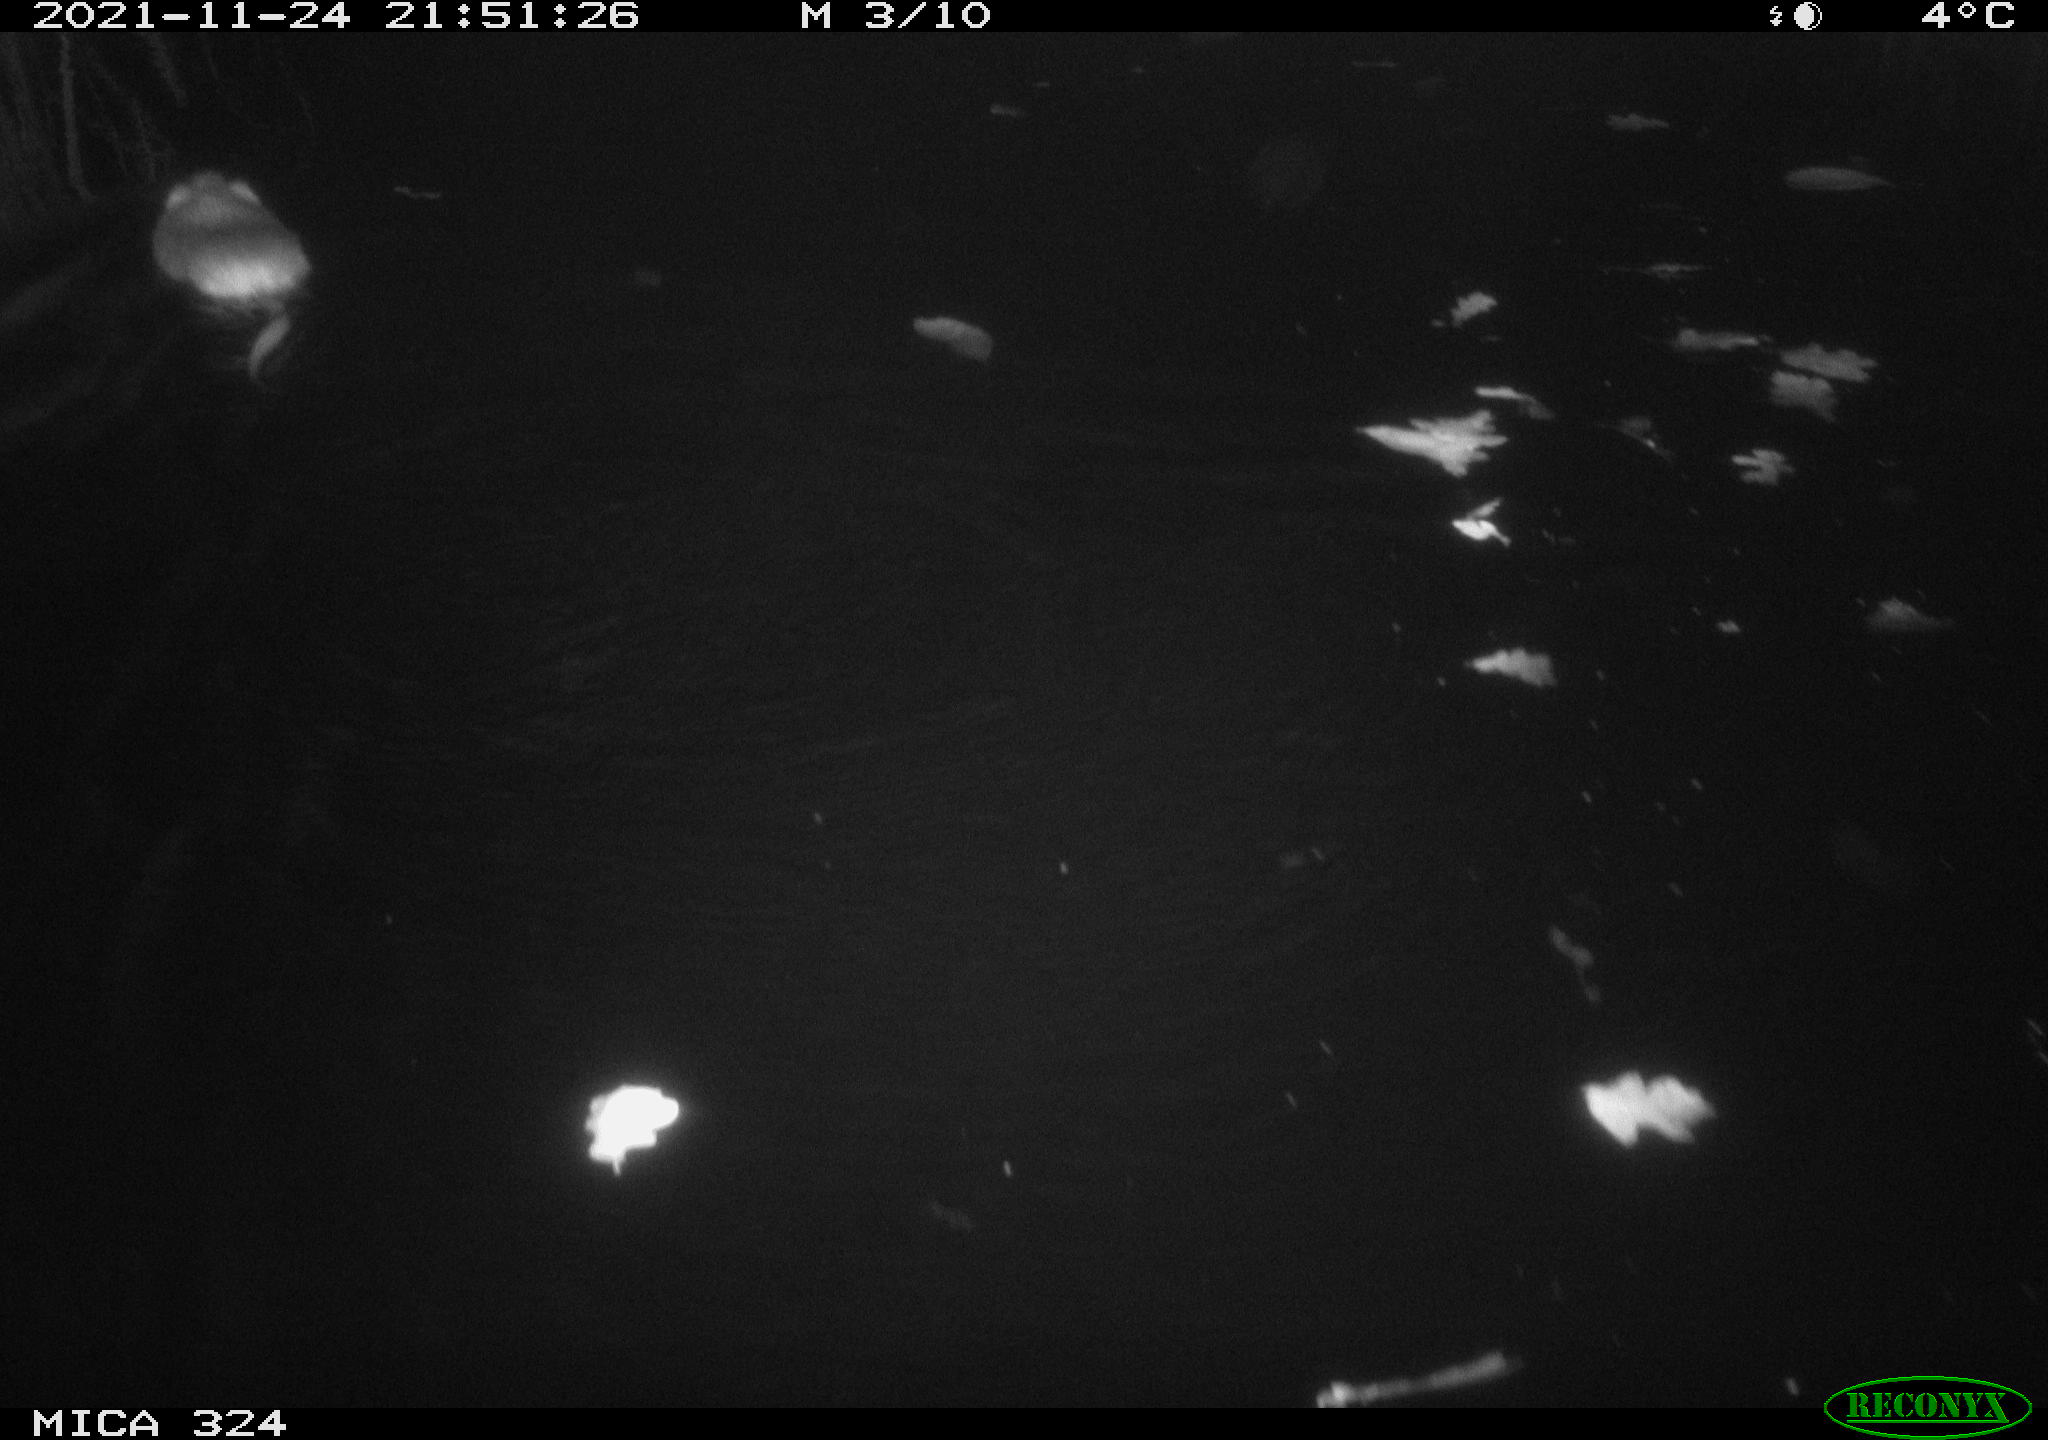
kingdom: Animalia
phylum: Chordata
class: Mammalia
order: Rodentia
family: Cricetidae
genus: Ondatra
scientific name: Ondatra zibethicus
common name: Muskrat
